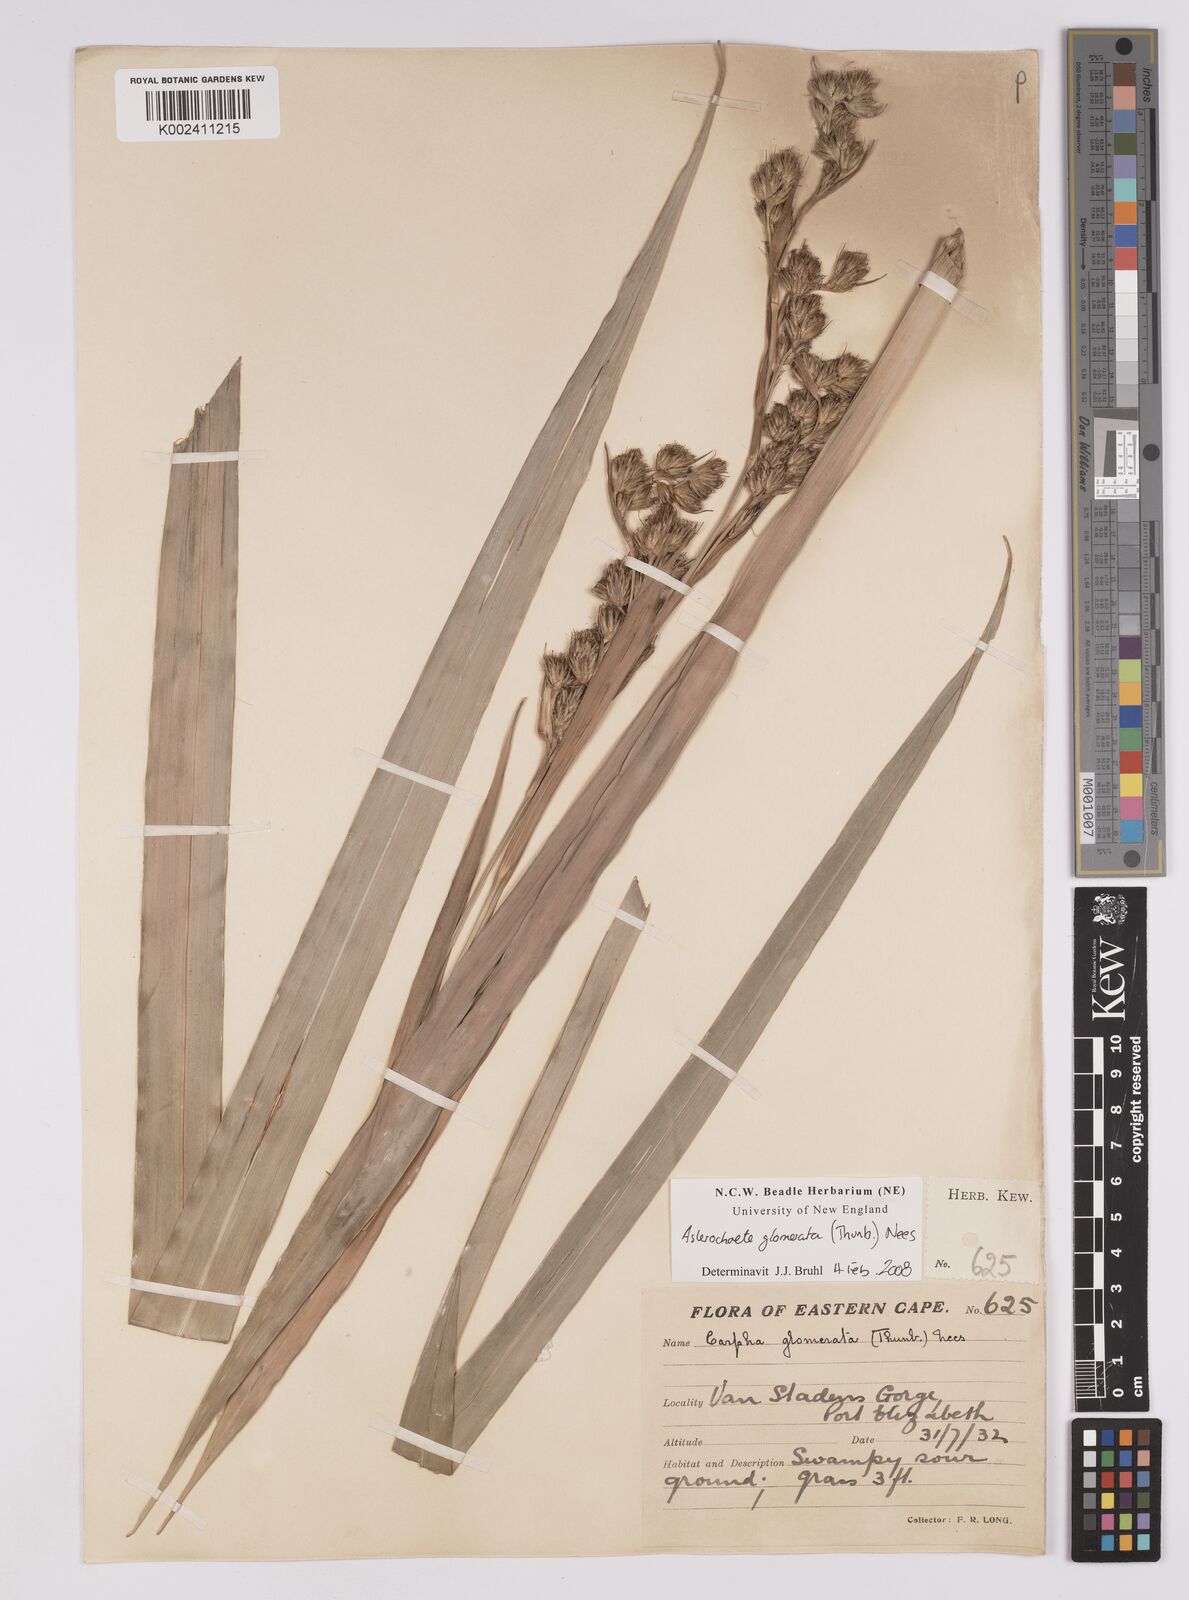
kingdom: Plantae
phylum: Tracheophyta
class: Liliopsida
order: Poales
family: Cyperaceae
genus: Carpha
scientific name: Carpha glomerata
